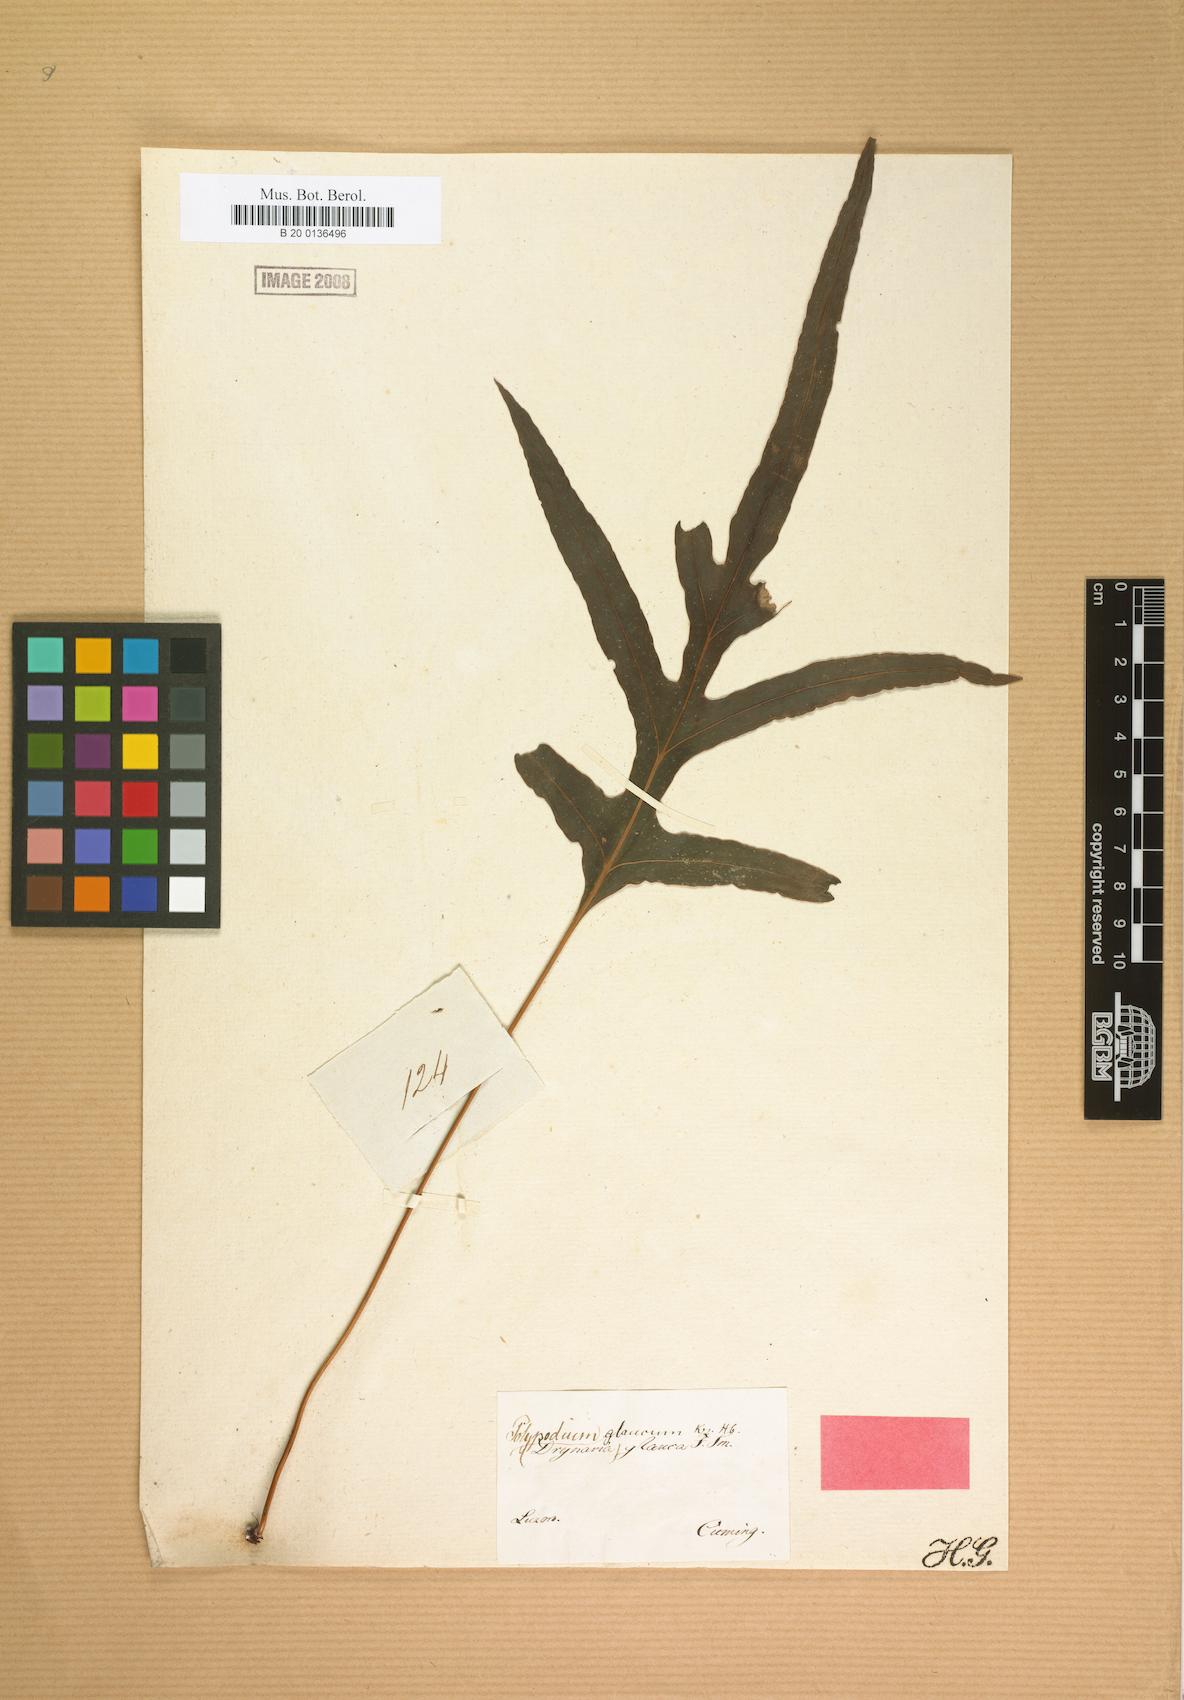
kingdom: Plantae
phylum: Tracheophyta
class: Polypodiopsida
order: Polypodiales
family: Polypodiaceae
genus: Selliguea
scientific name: Selliguea glauca
